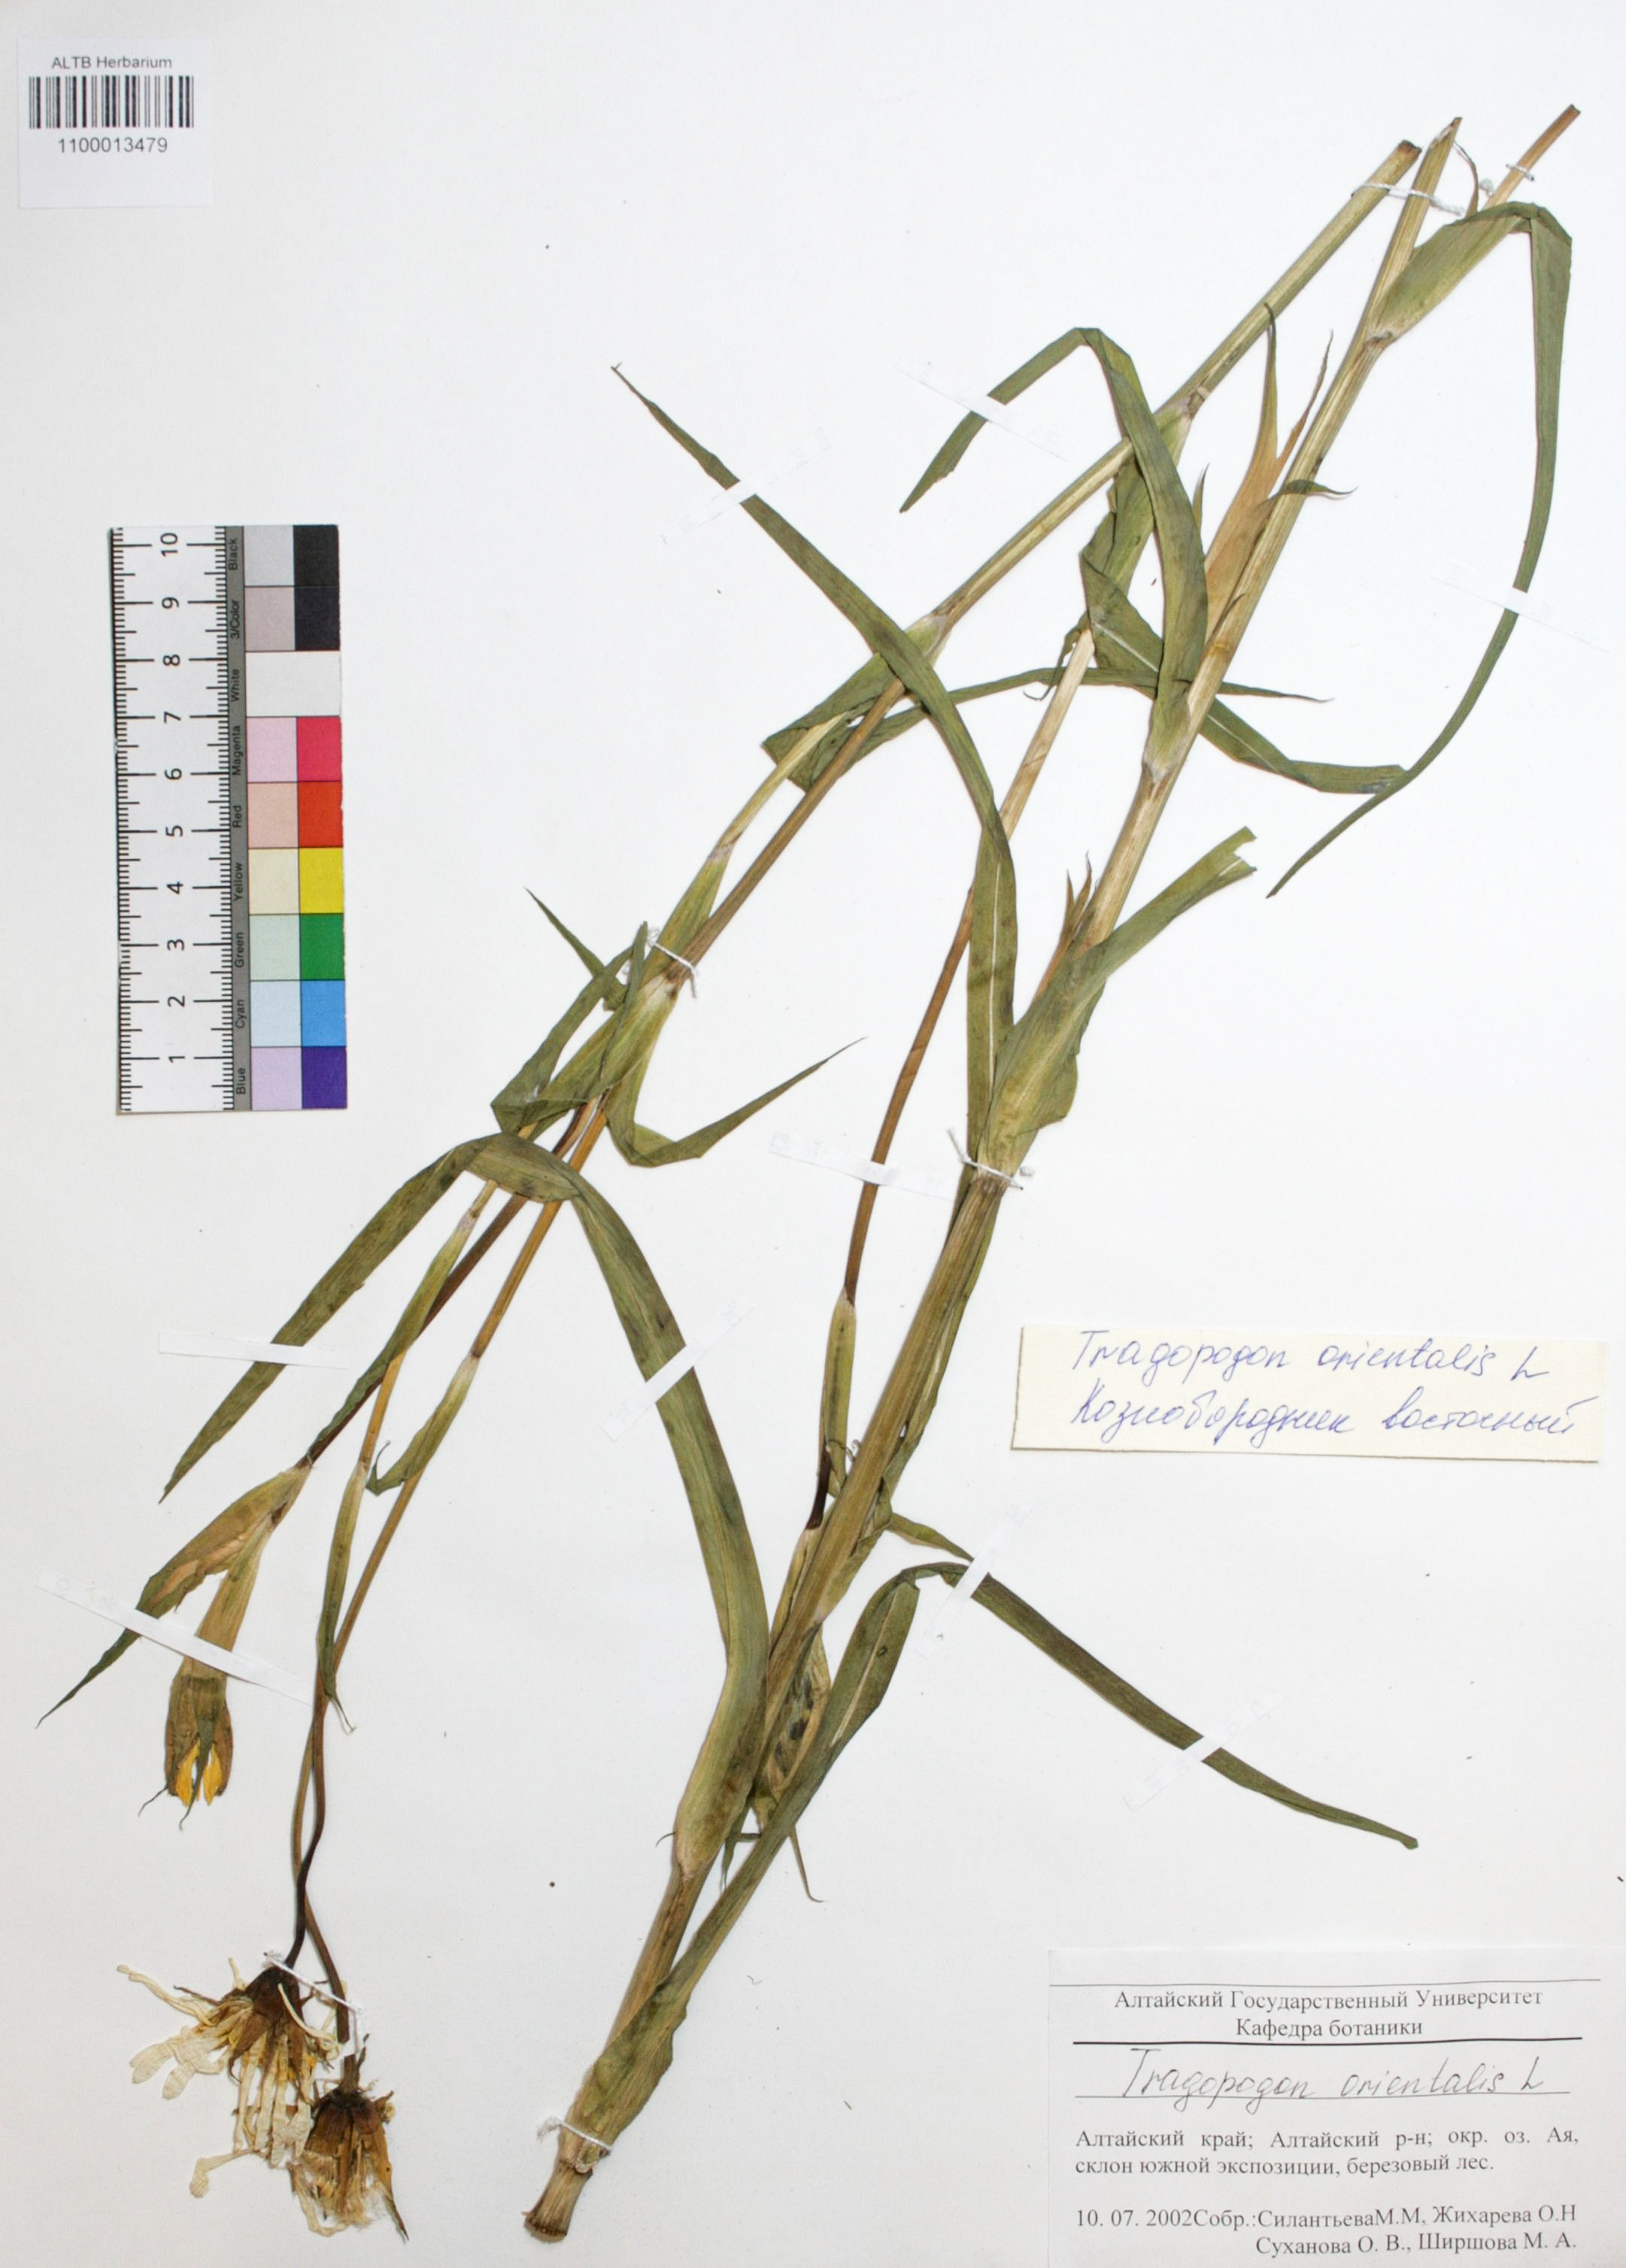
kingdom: Plantae
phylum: Tracheophyta
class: Magnoliopsida
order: Asterales
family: Asteraceae
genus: Tragopogon
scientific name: Tragopogon orientalis
